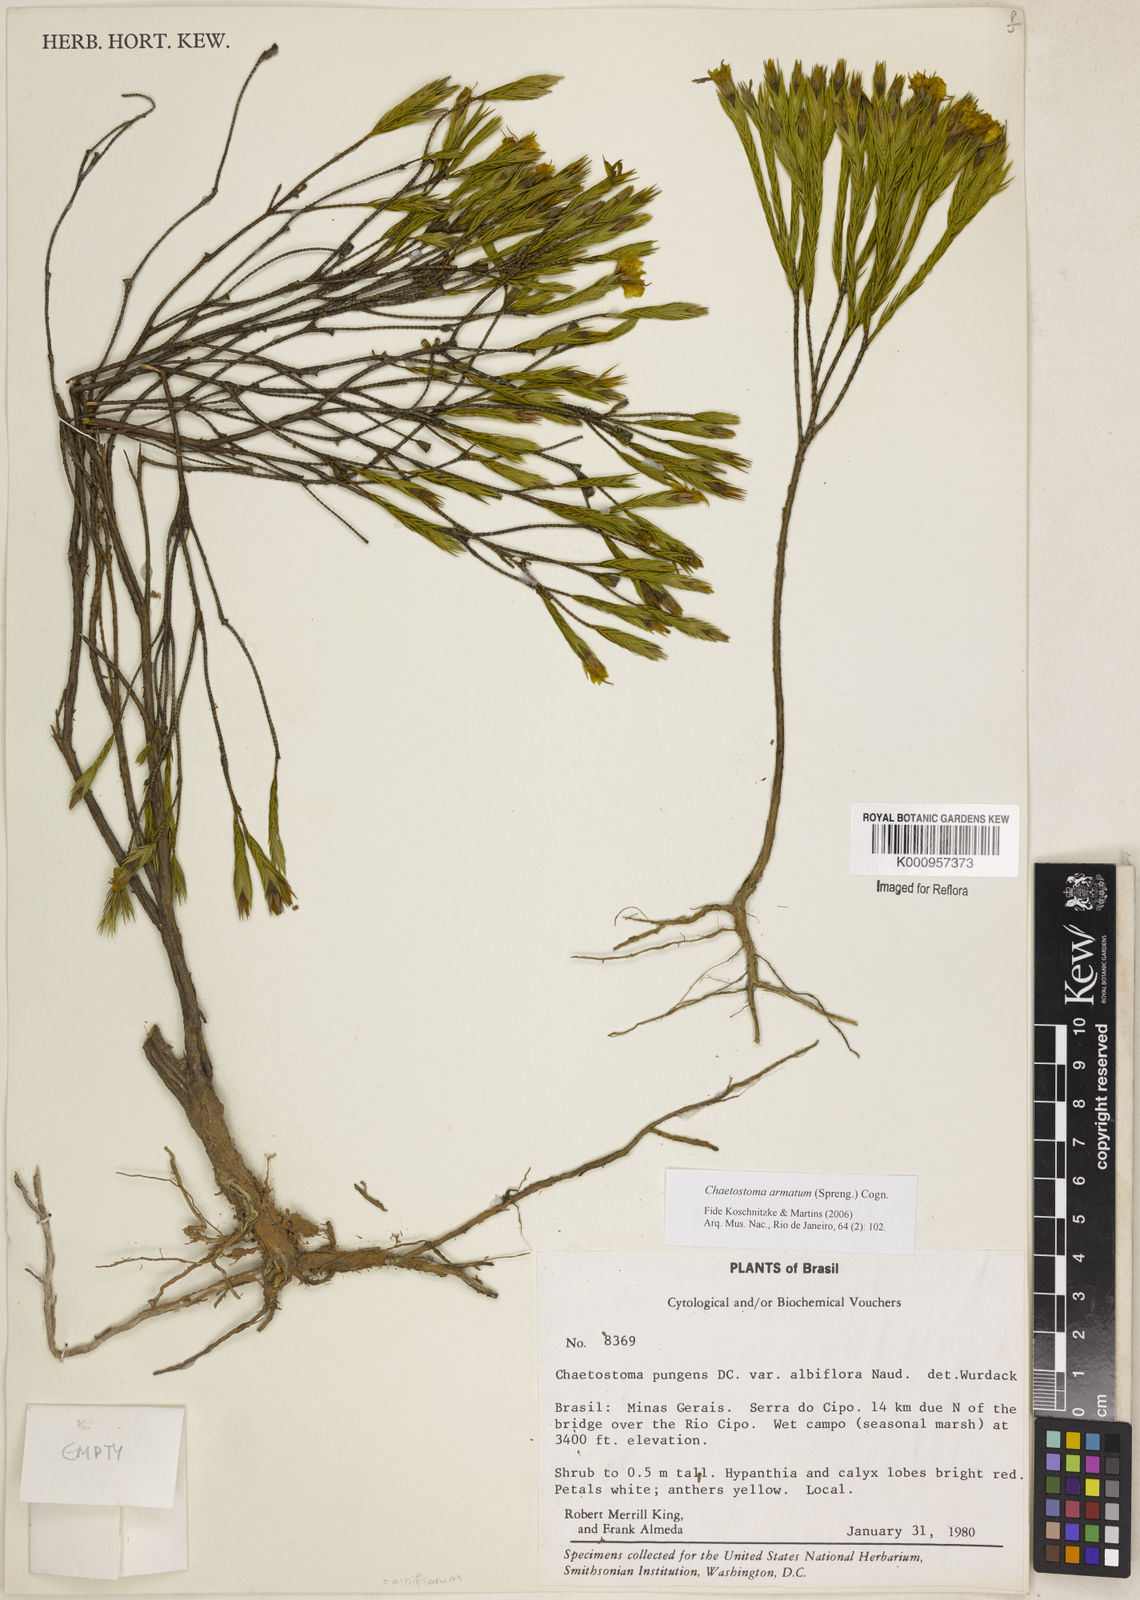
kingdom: Plantae
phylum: Tracheophyta
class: Magnoliopsida
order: Myrtales
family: Melastomataceae
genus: Microlicia
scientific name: Microlicia armata
